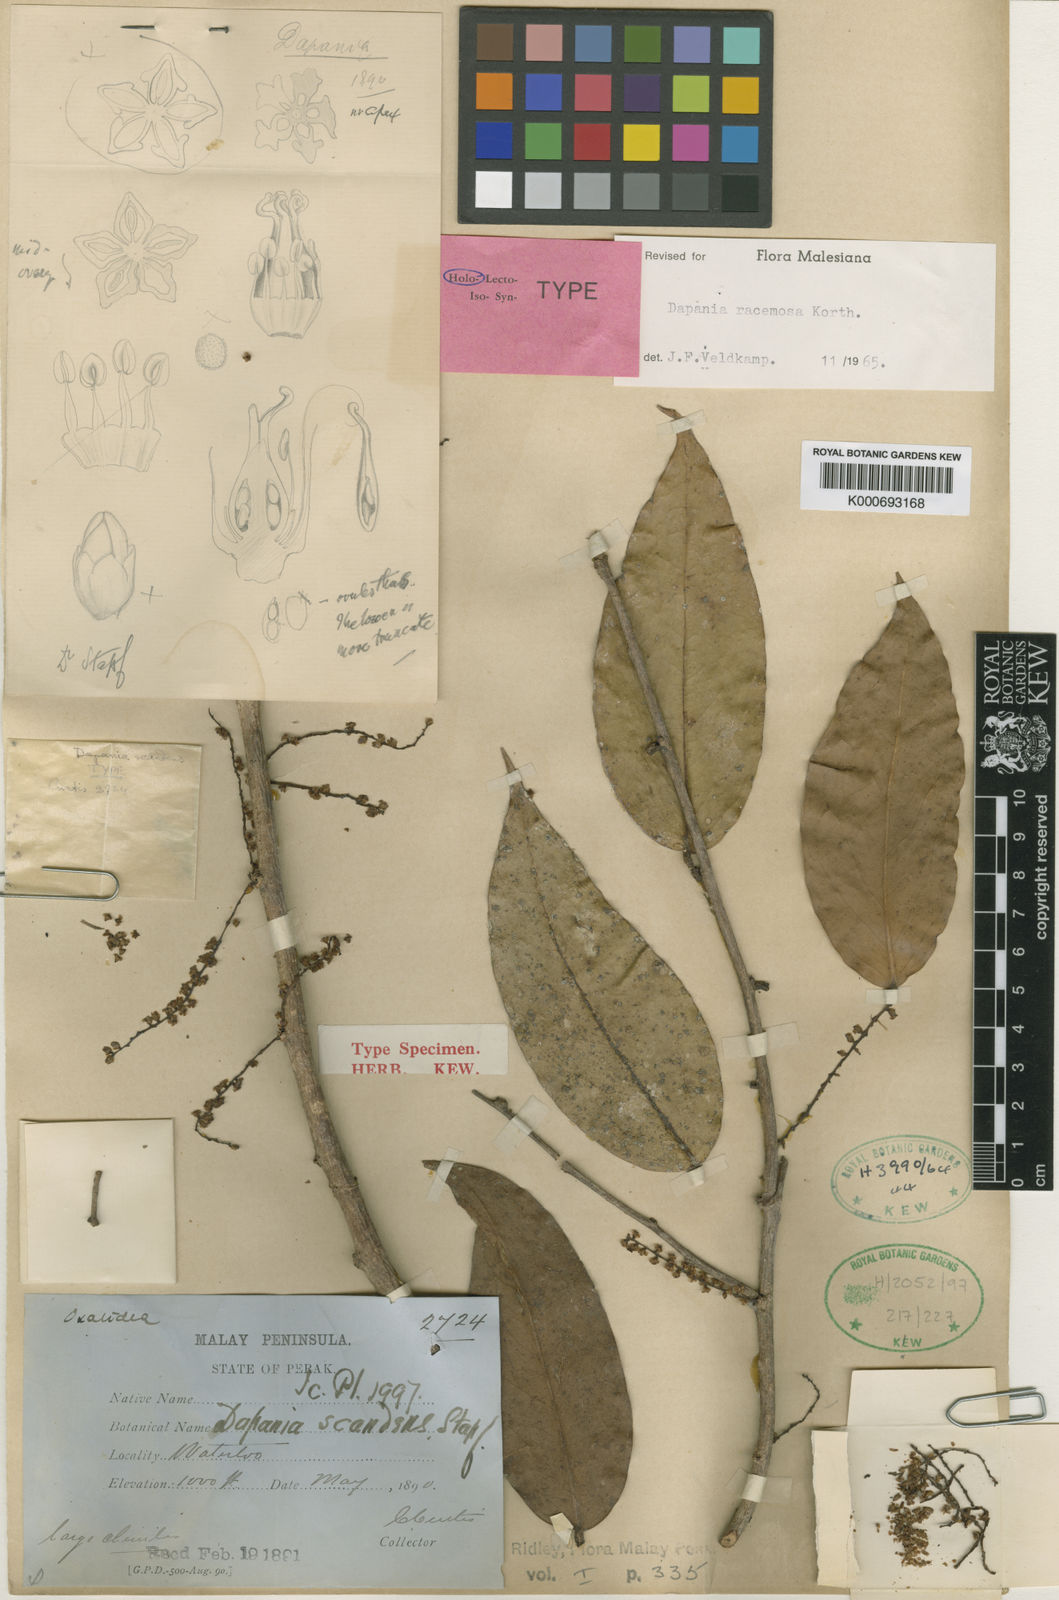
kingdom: Plantae
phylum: Tracheophyta
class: Magnoliopsida
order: Oxalidales
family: Oxalidaceae
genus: Dapania
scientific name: Dapania racemosa
